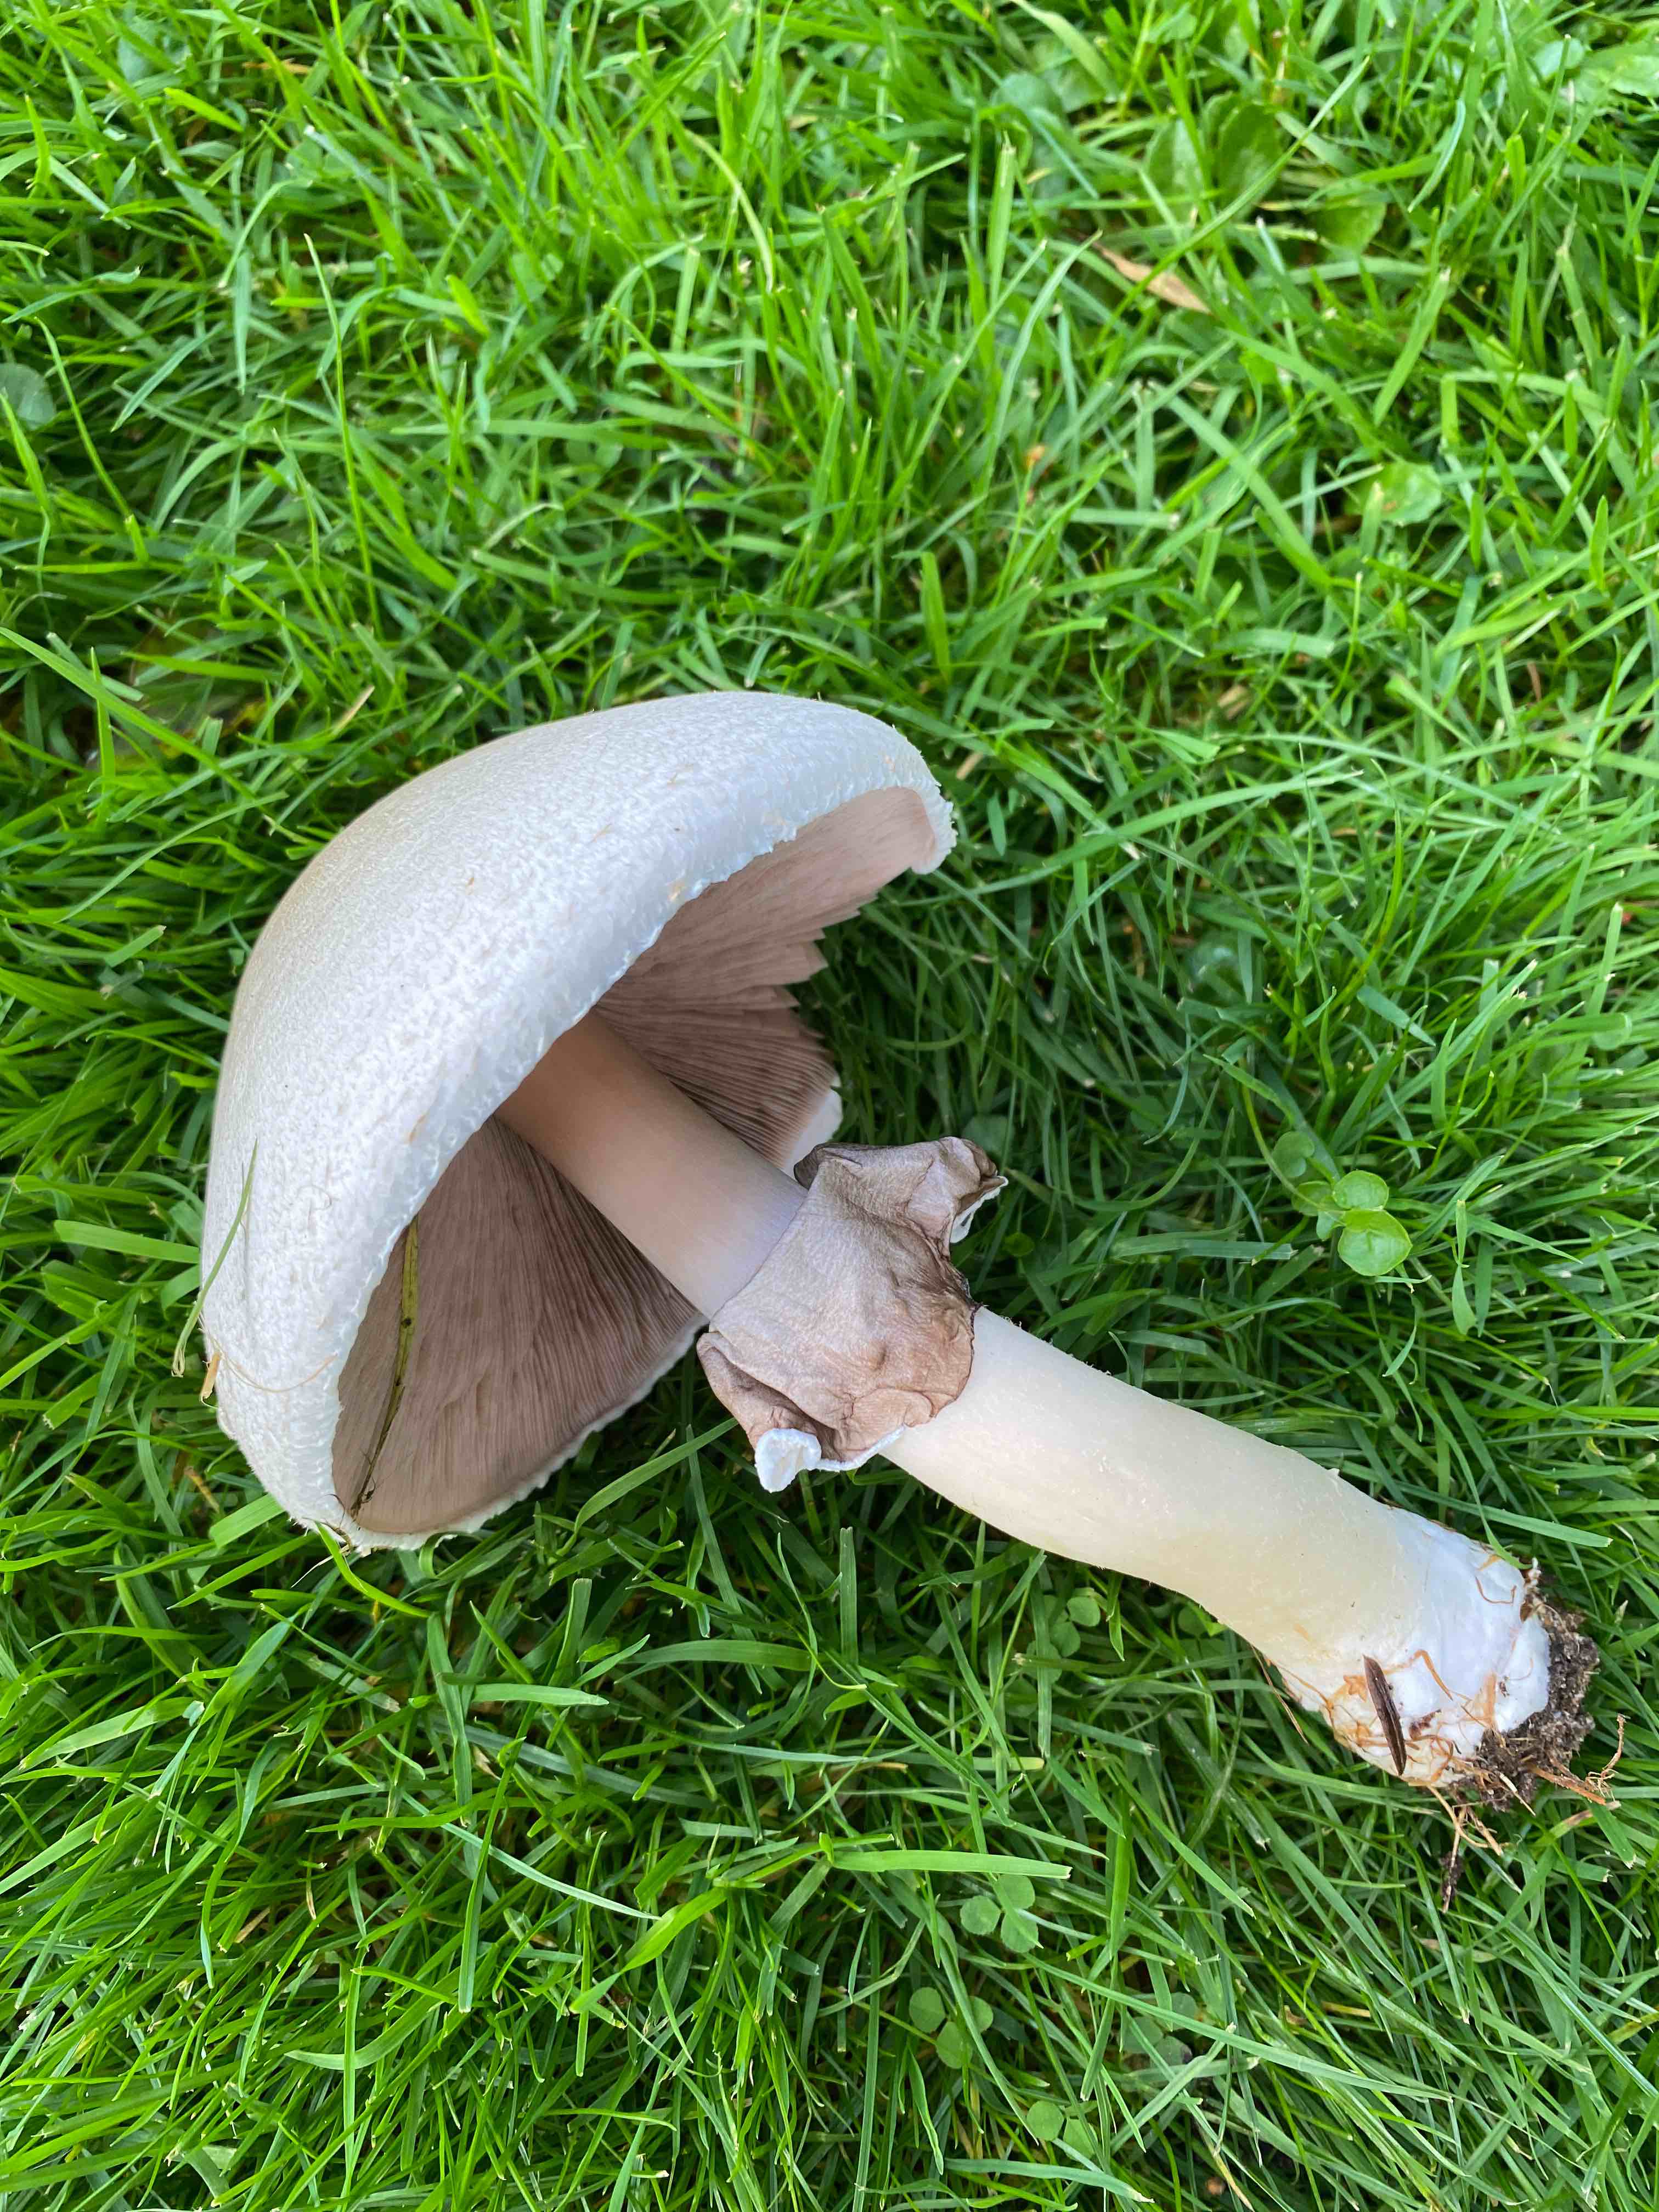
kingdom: Fungi
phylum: Basidiomycota
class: Agaricomycetes
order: Agaricales
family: Agaricaceae
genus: Agaricus
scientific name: Agaricus
